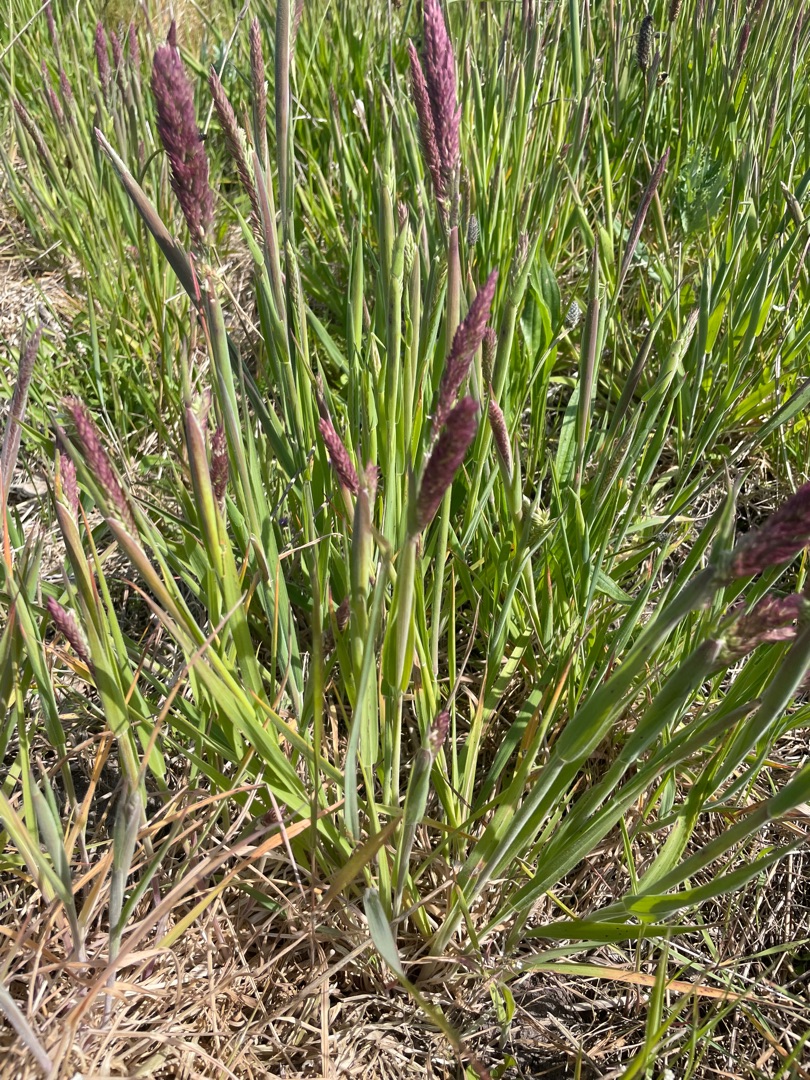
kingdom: Plantae
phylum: Tracheophyta
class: Liliopsida
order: Poales
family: Poaceae
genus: Holcus
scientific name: Holcus lanatus
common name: Fløjlsgræs
